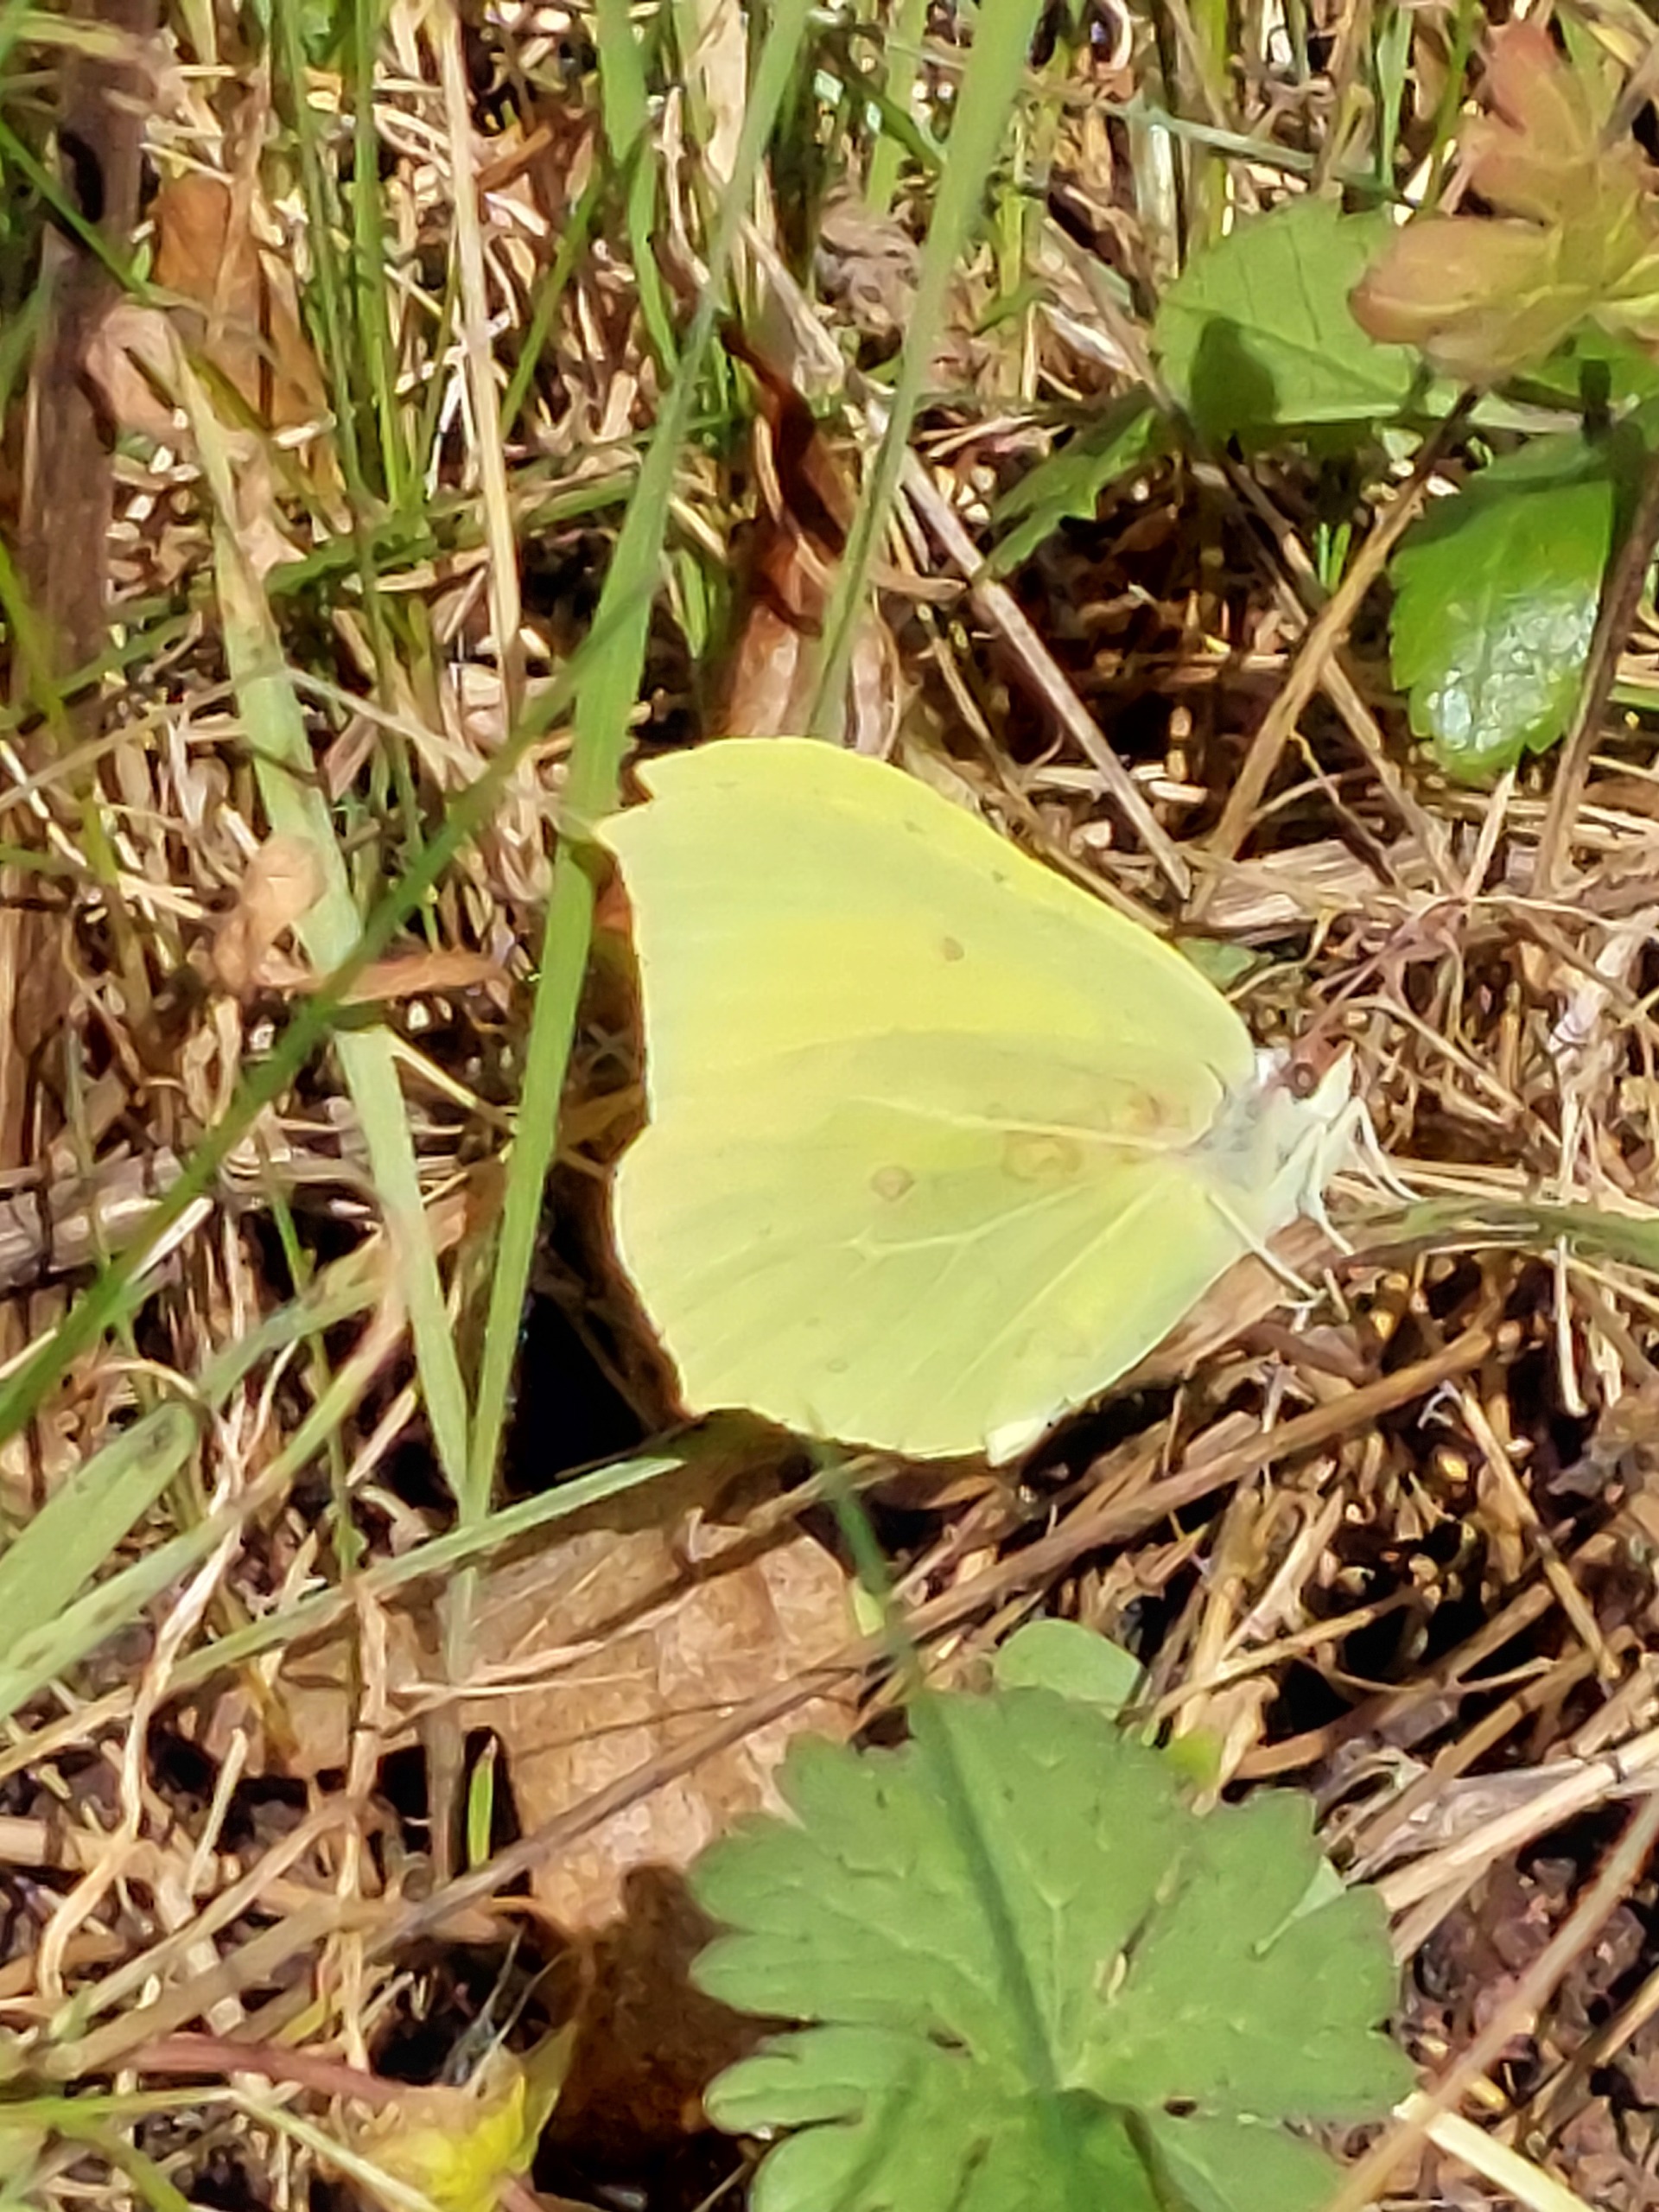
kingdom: Animalia
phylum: Arthropoda
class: Insecta
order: Lepidoptera
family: Pieridae
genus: Gonepteryx
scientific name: Gonepteryx rhamni
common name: Citronsommerfugl
